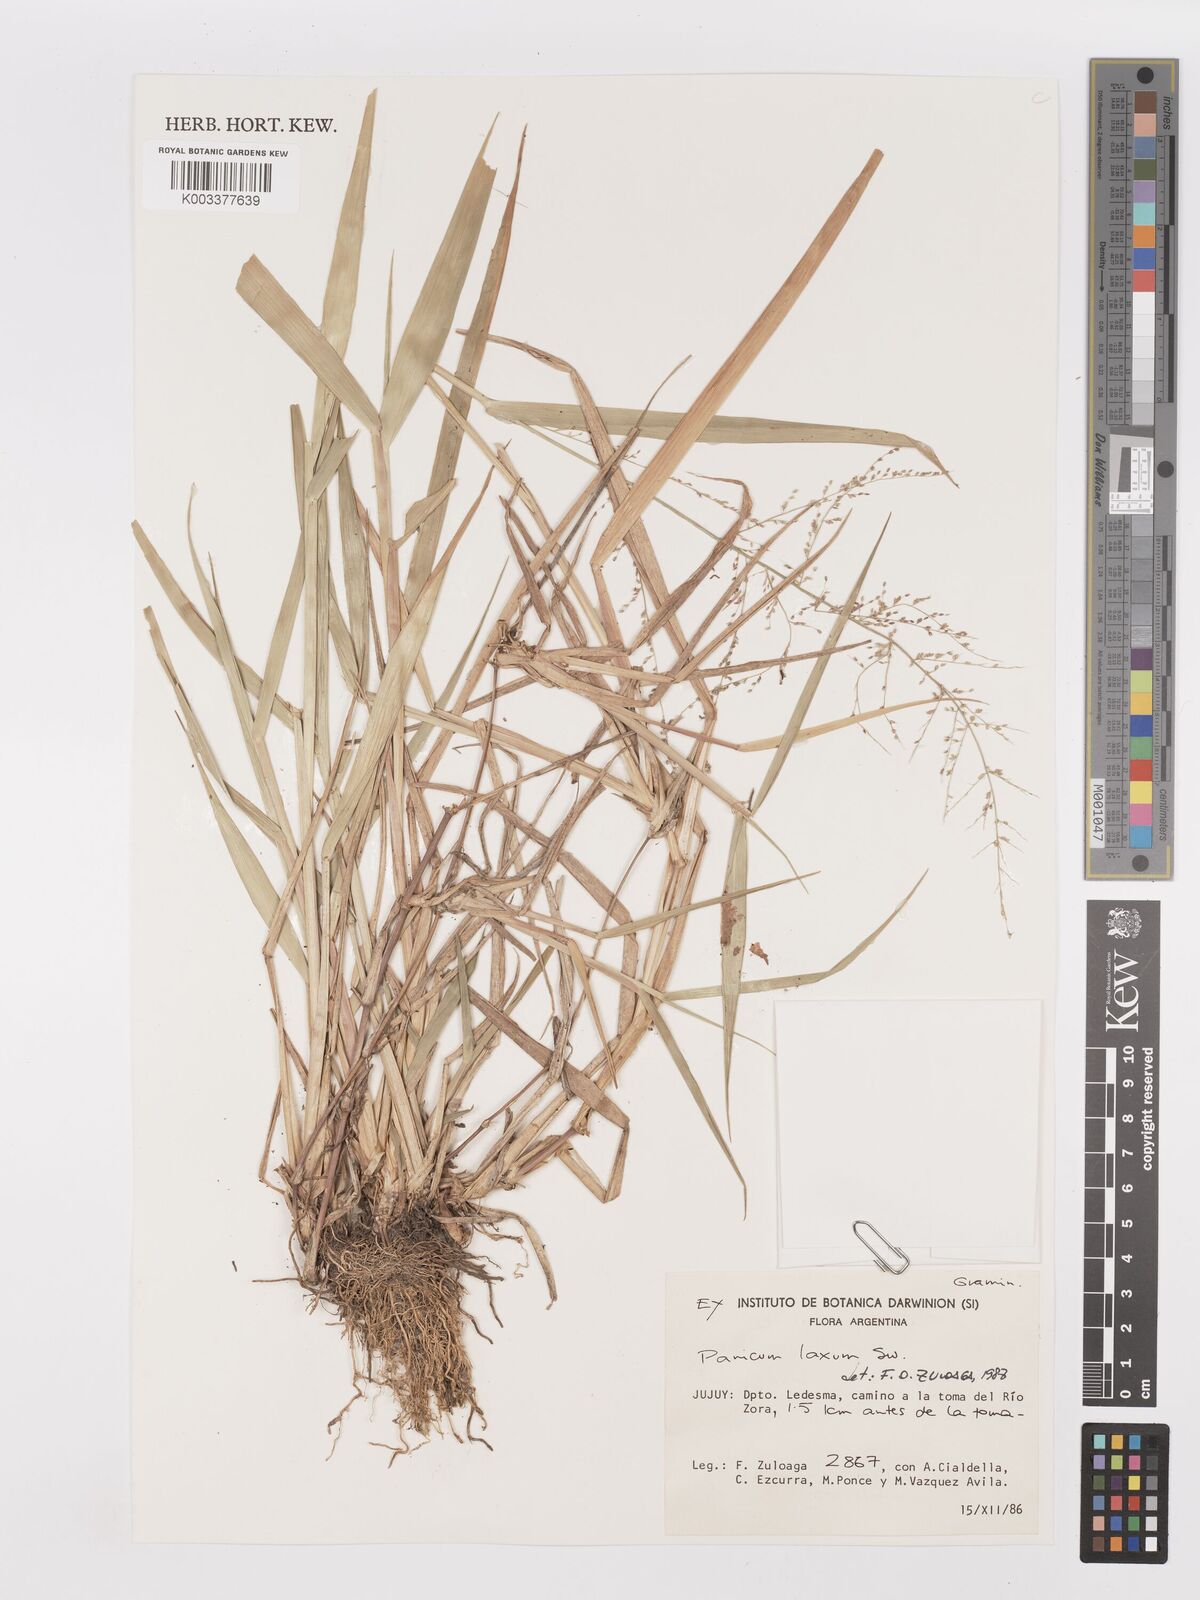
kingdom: Plantae
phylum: Tracheophyta
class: Liliopsida
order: Poales
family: Poaceae
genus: Steinchisma
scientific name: Steinchisma laxum
